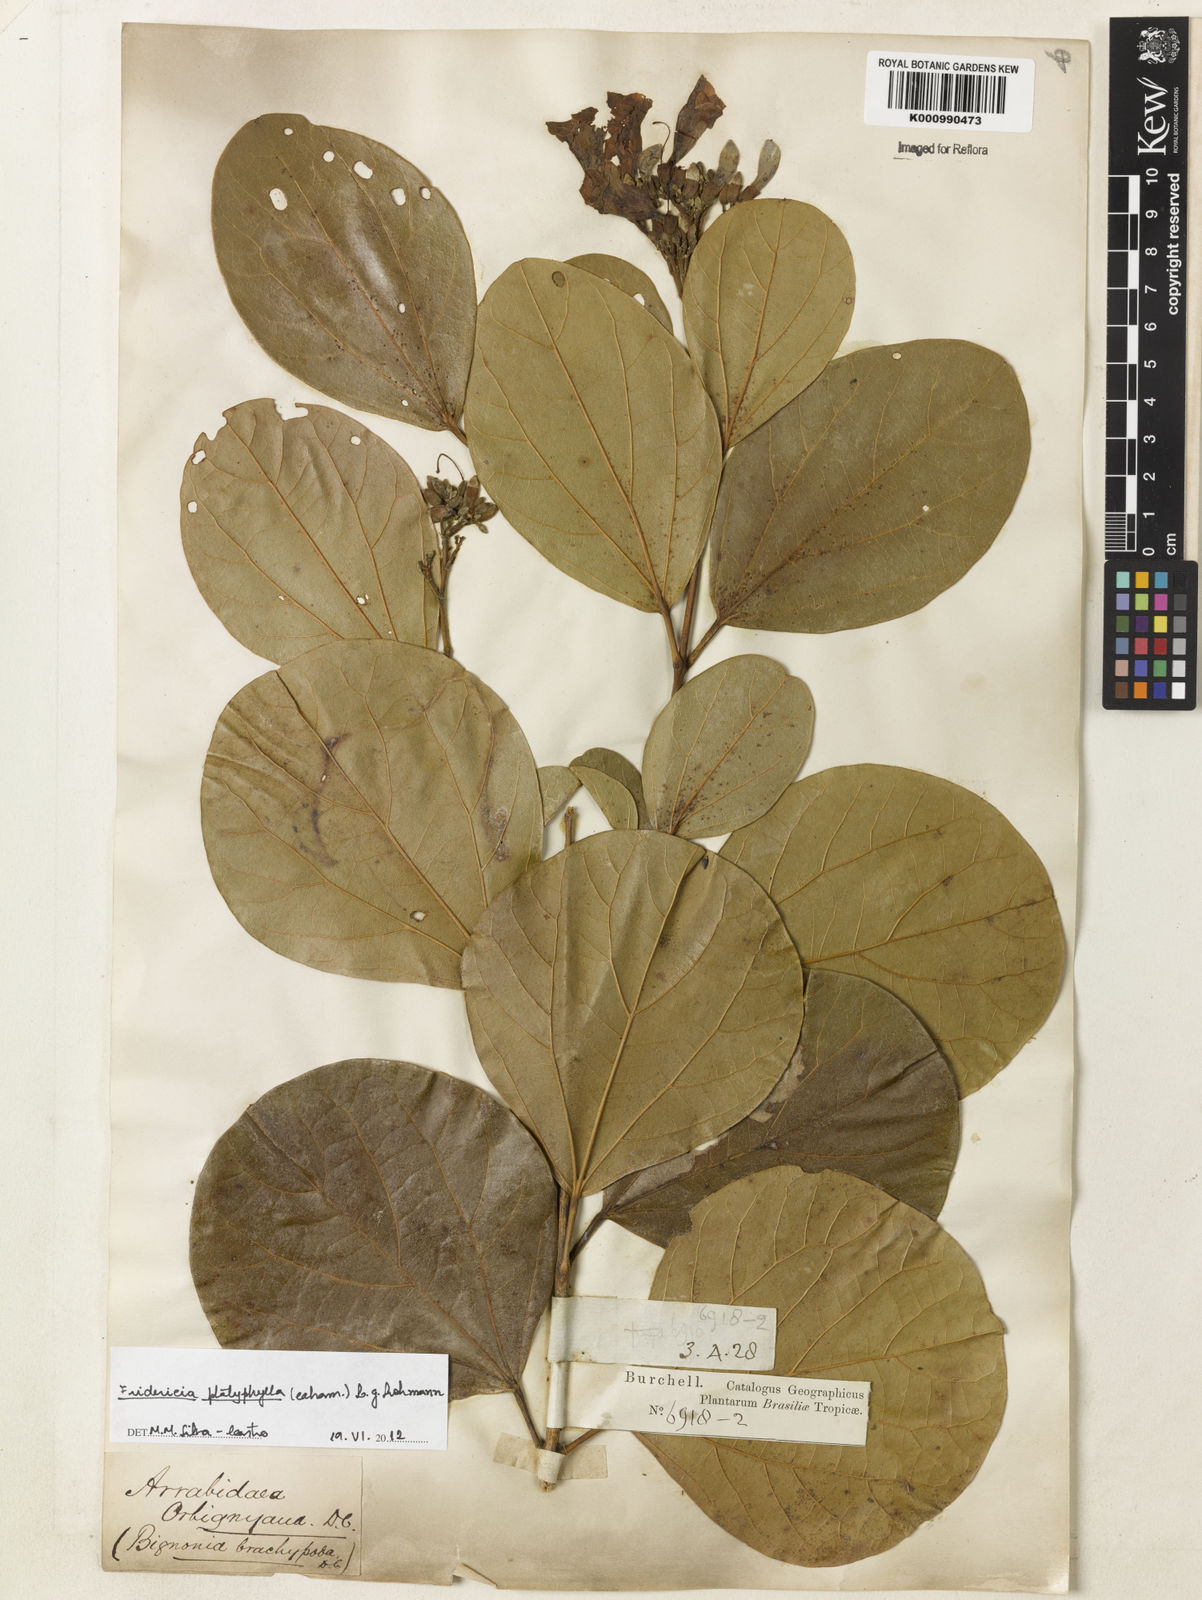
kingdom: Plantae
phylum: Tracheophyta
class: Magnoliopsida
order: Lamiales
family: Bignoniaceae
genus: Fridericia
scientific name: Fridericia platyphylla
